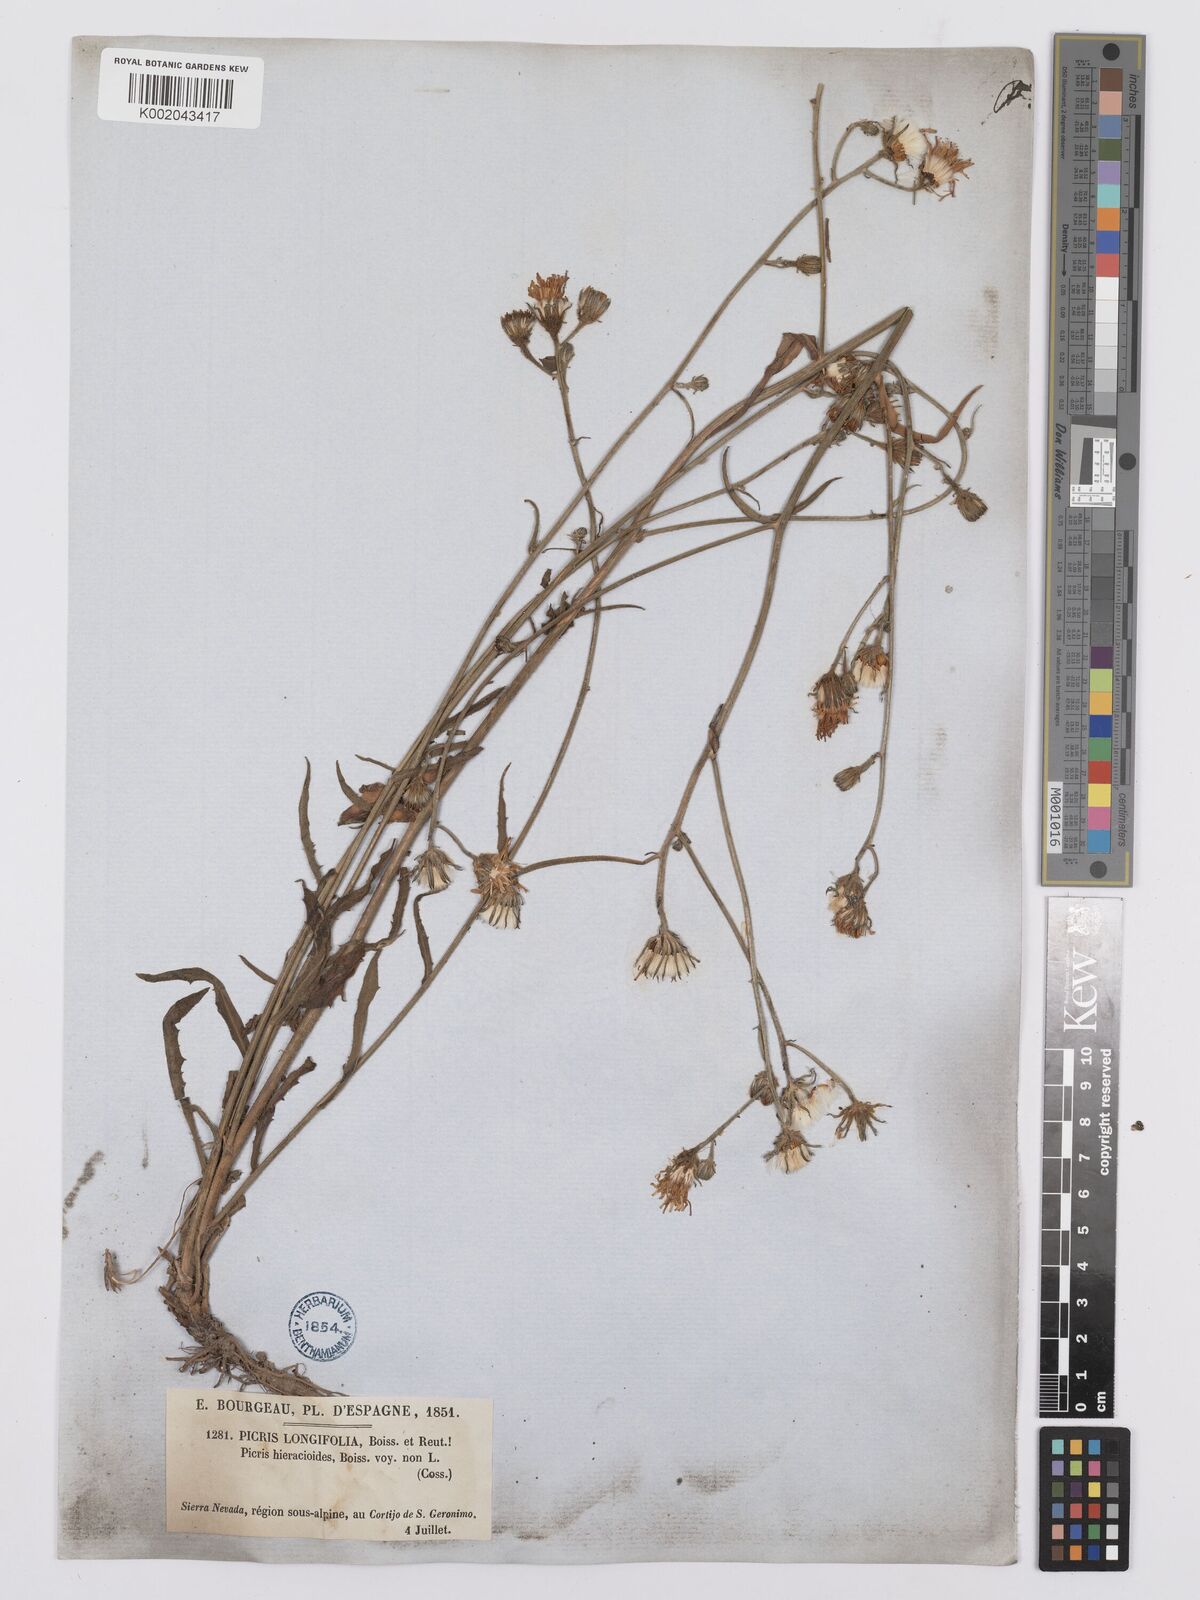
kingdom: Plantae
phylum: Tracheophyta
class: Magnoliopsida
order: Asterales
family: Asteraceae
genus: Picris
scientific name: Picris hieracioides
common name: Hawkweed oxtongue
